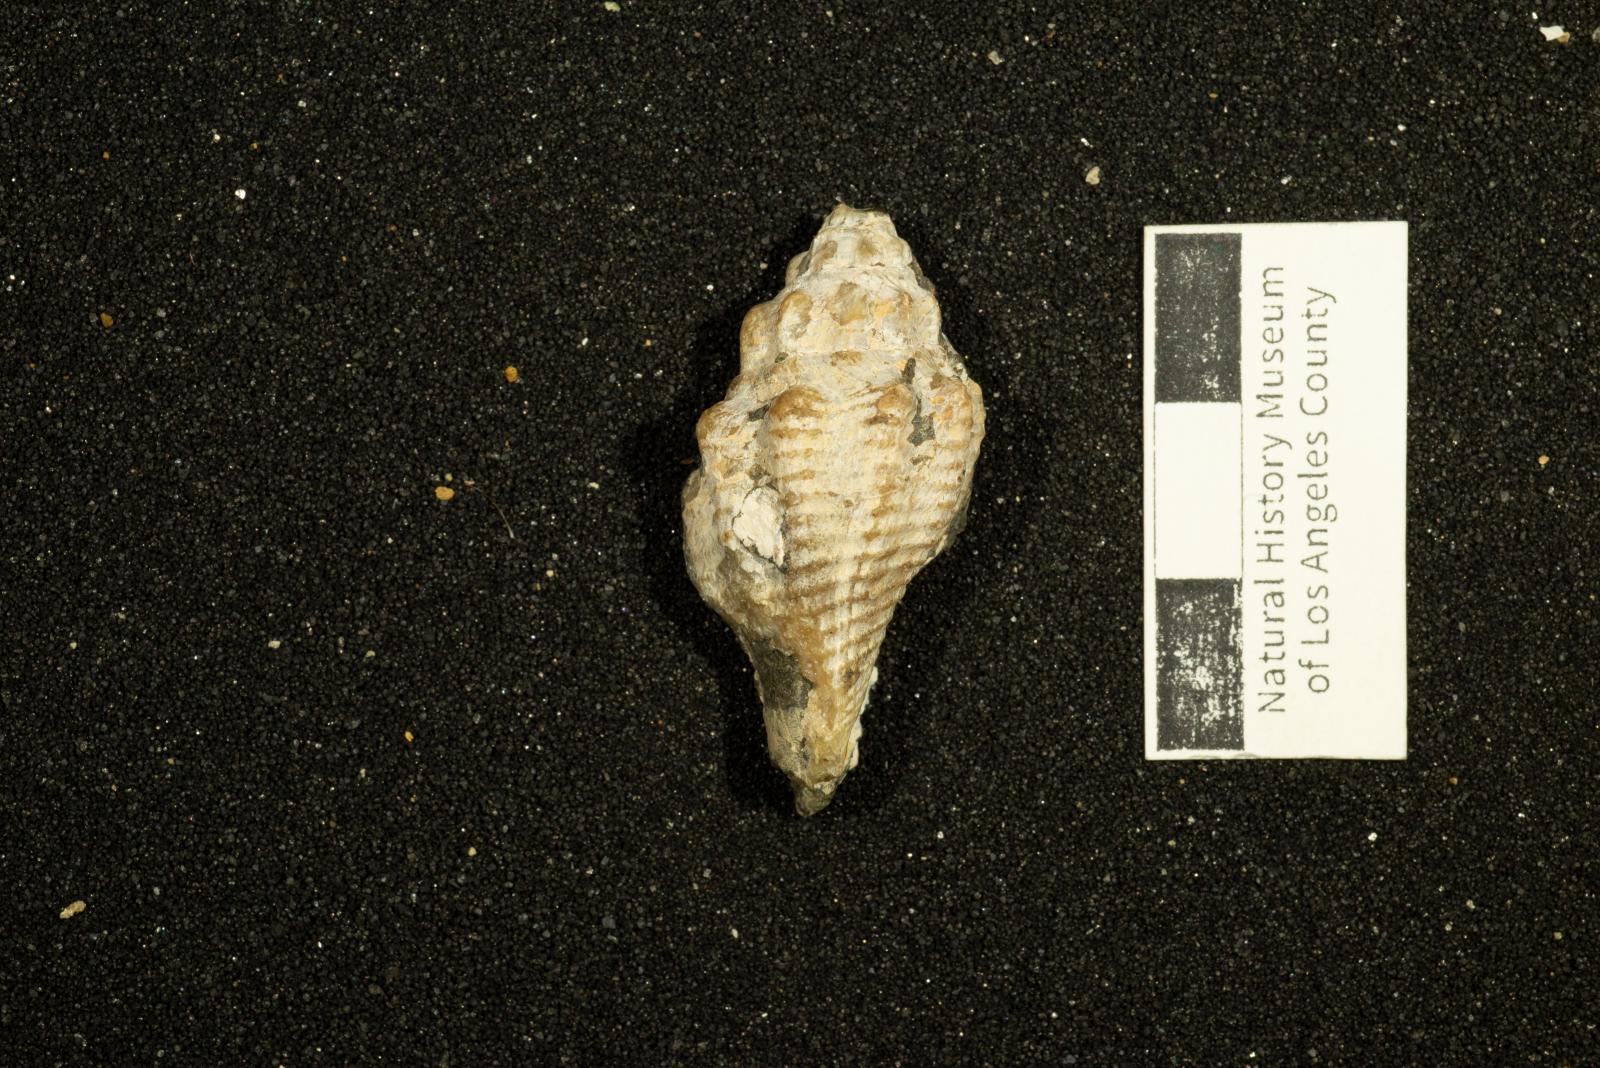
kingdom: Animalia
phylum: Mollusca
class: Gastropoda
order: Neogastropoda
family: Volutidae
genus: Carota
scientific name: Carota Scobinella dilleri
